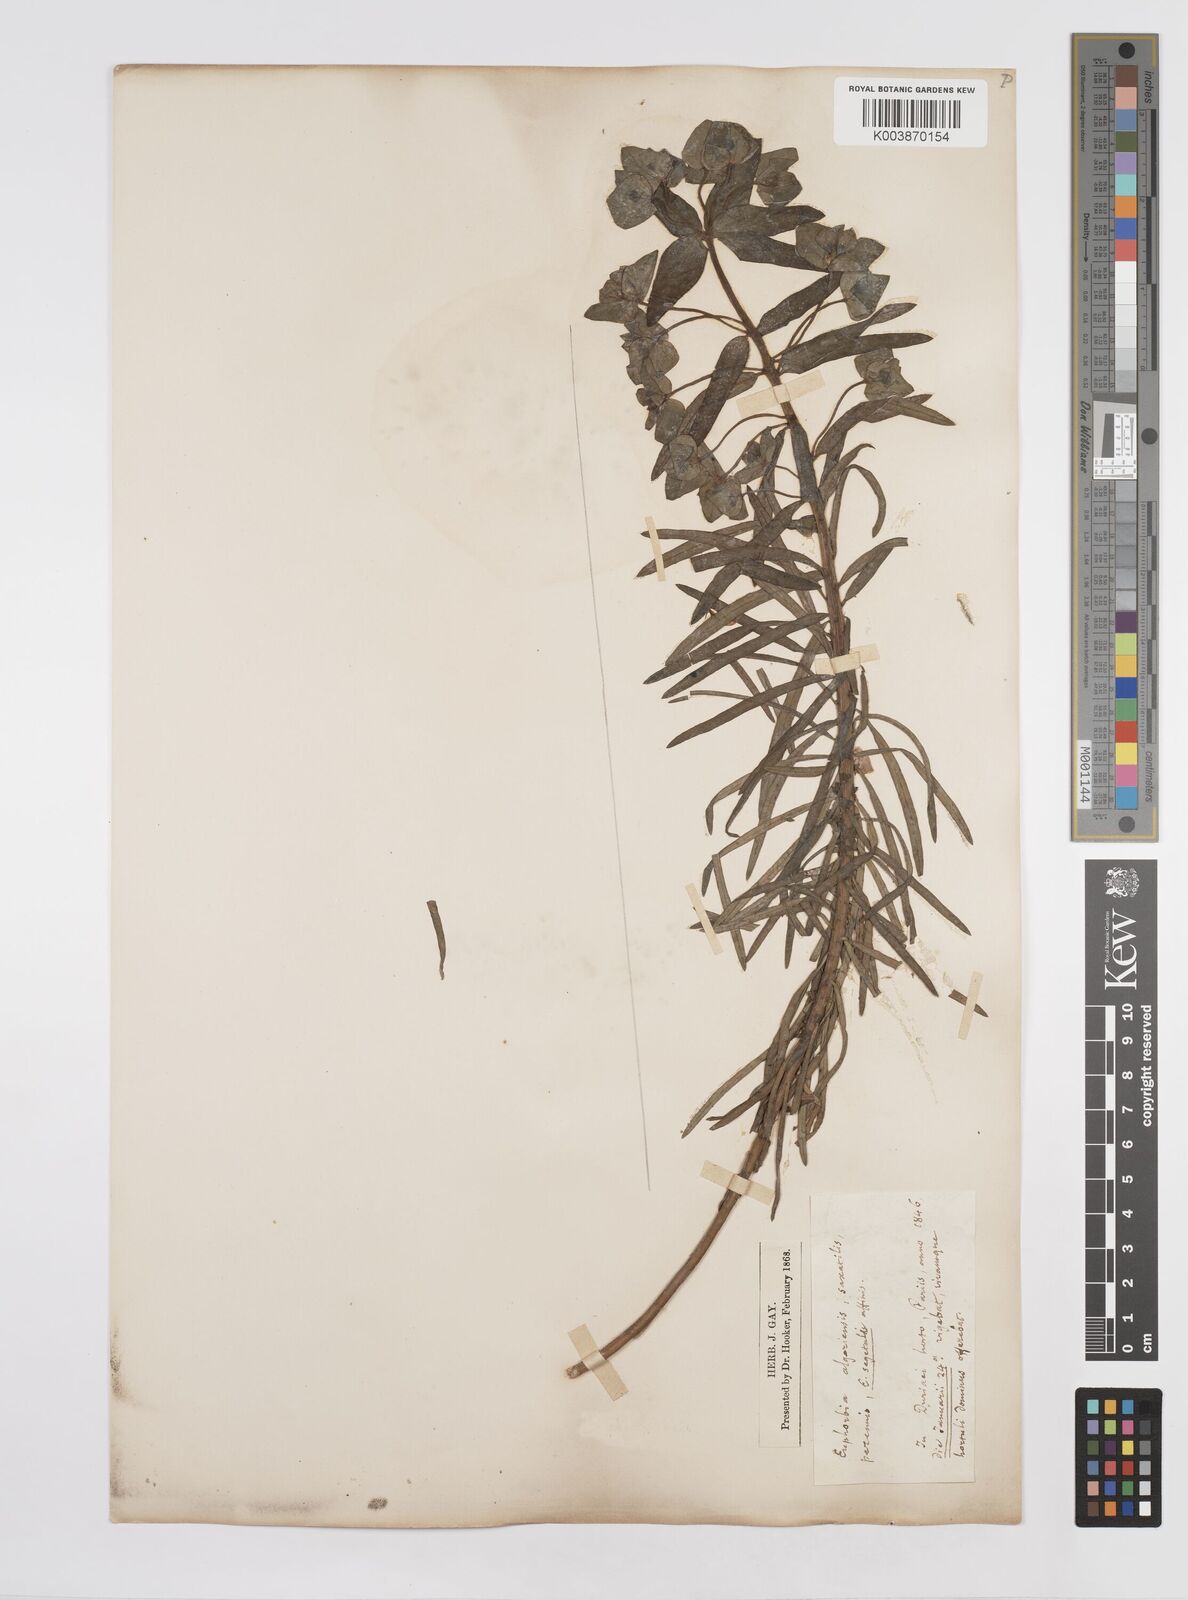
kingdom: Plantae
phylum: Tracheophyta
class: Magnoliopsida
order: Malpighiales
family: Euphorbiaceae
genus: Euphorbia
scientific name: Euphorbia segetalis
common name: Corn spurge
